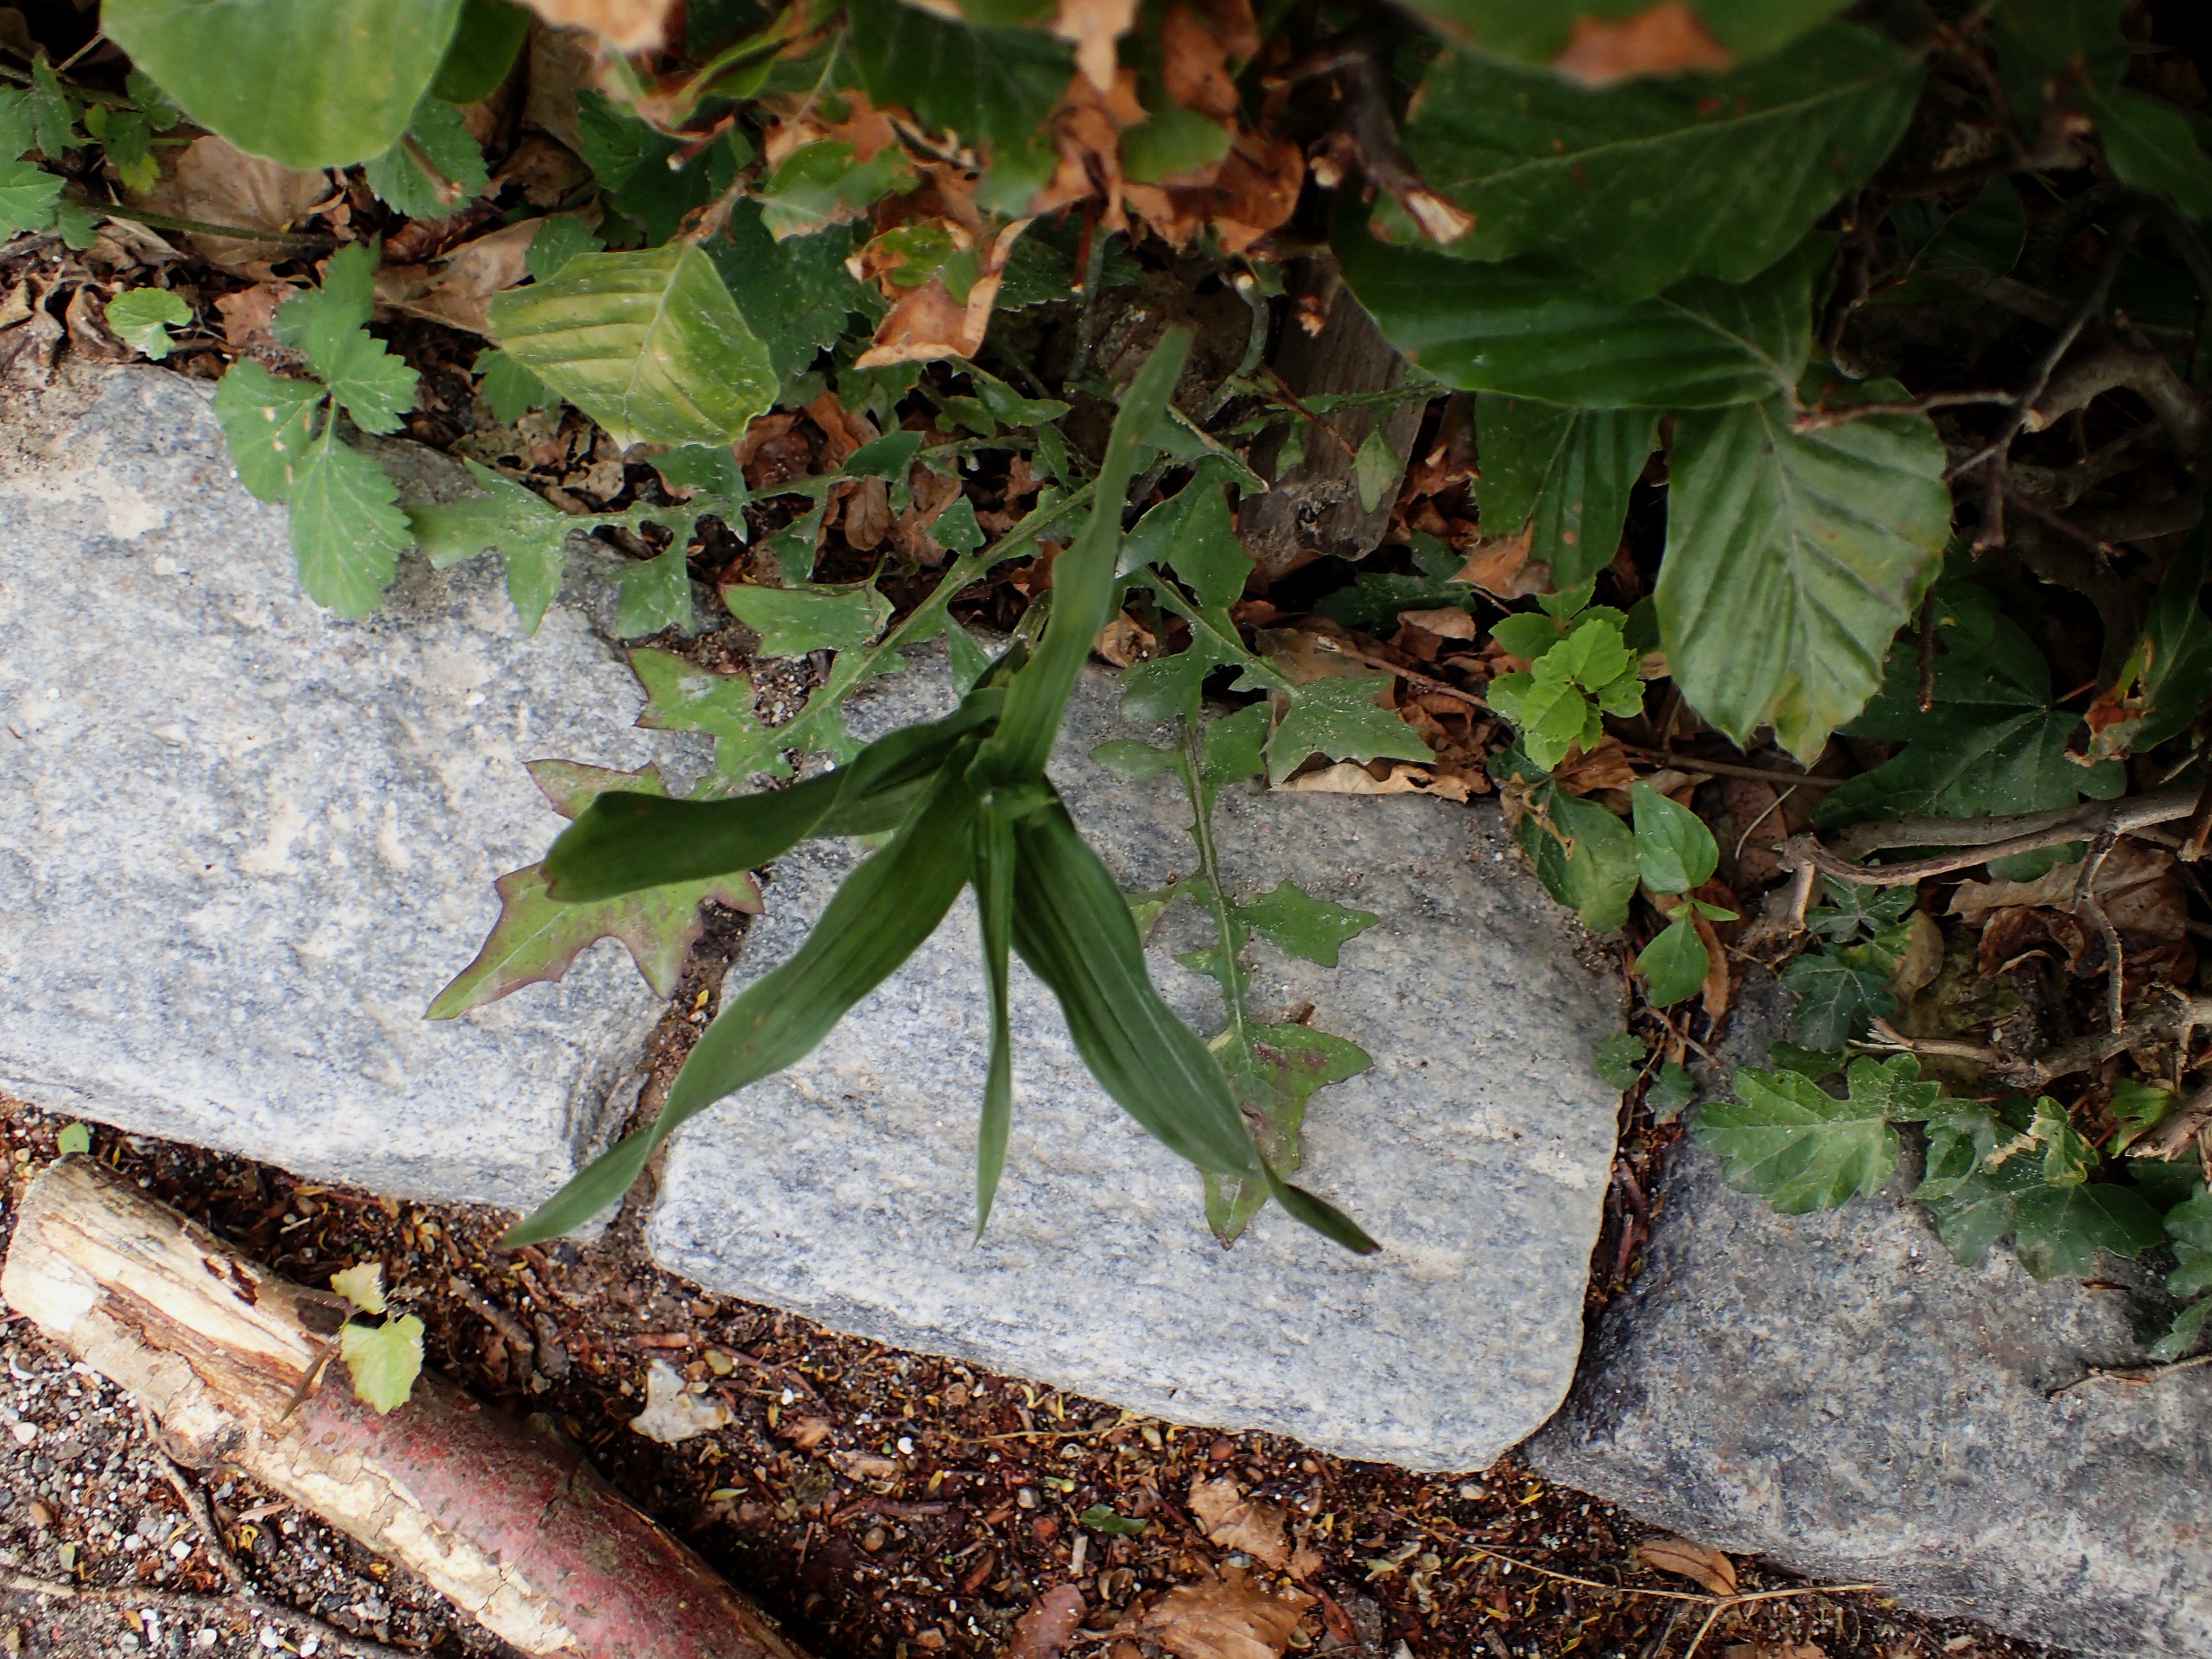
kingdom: Plantae
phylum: Tracheophyta
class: Liliopsida
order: Asparagales
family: Orchidaceae
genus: Epipactis
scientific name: Epipactis helleborine
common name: Skov-hullæbe
